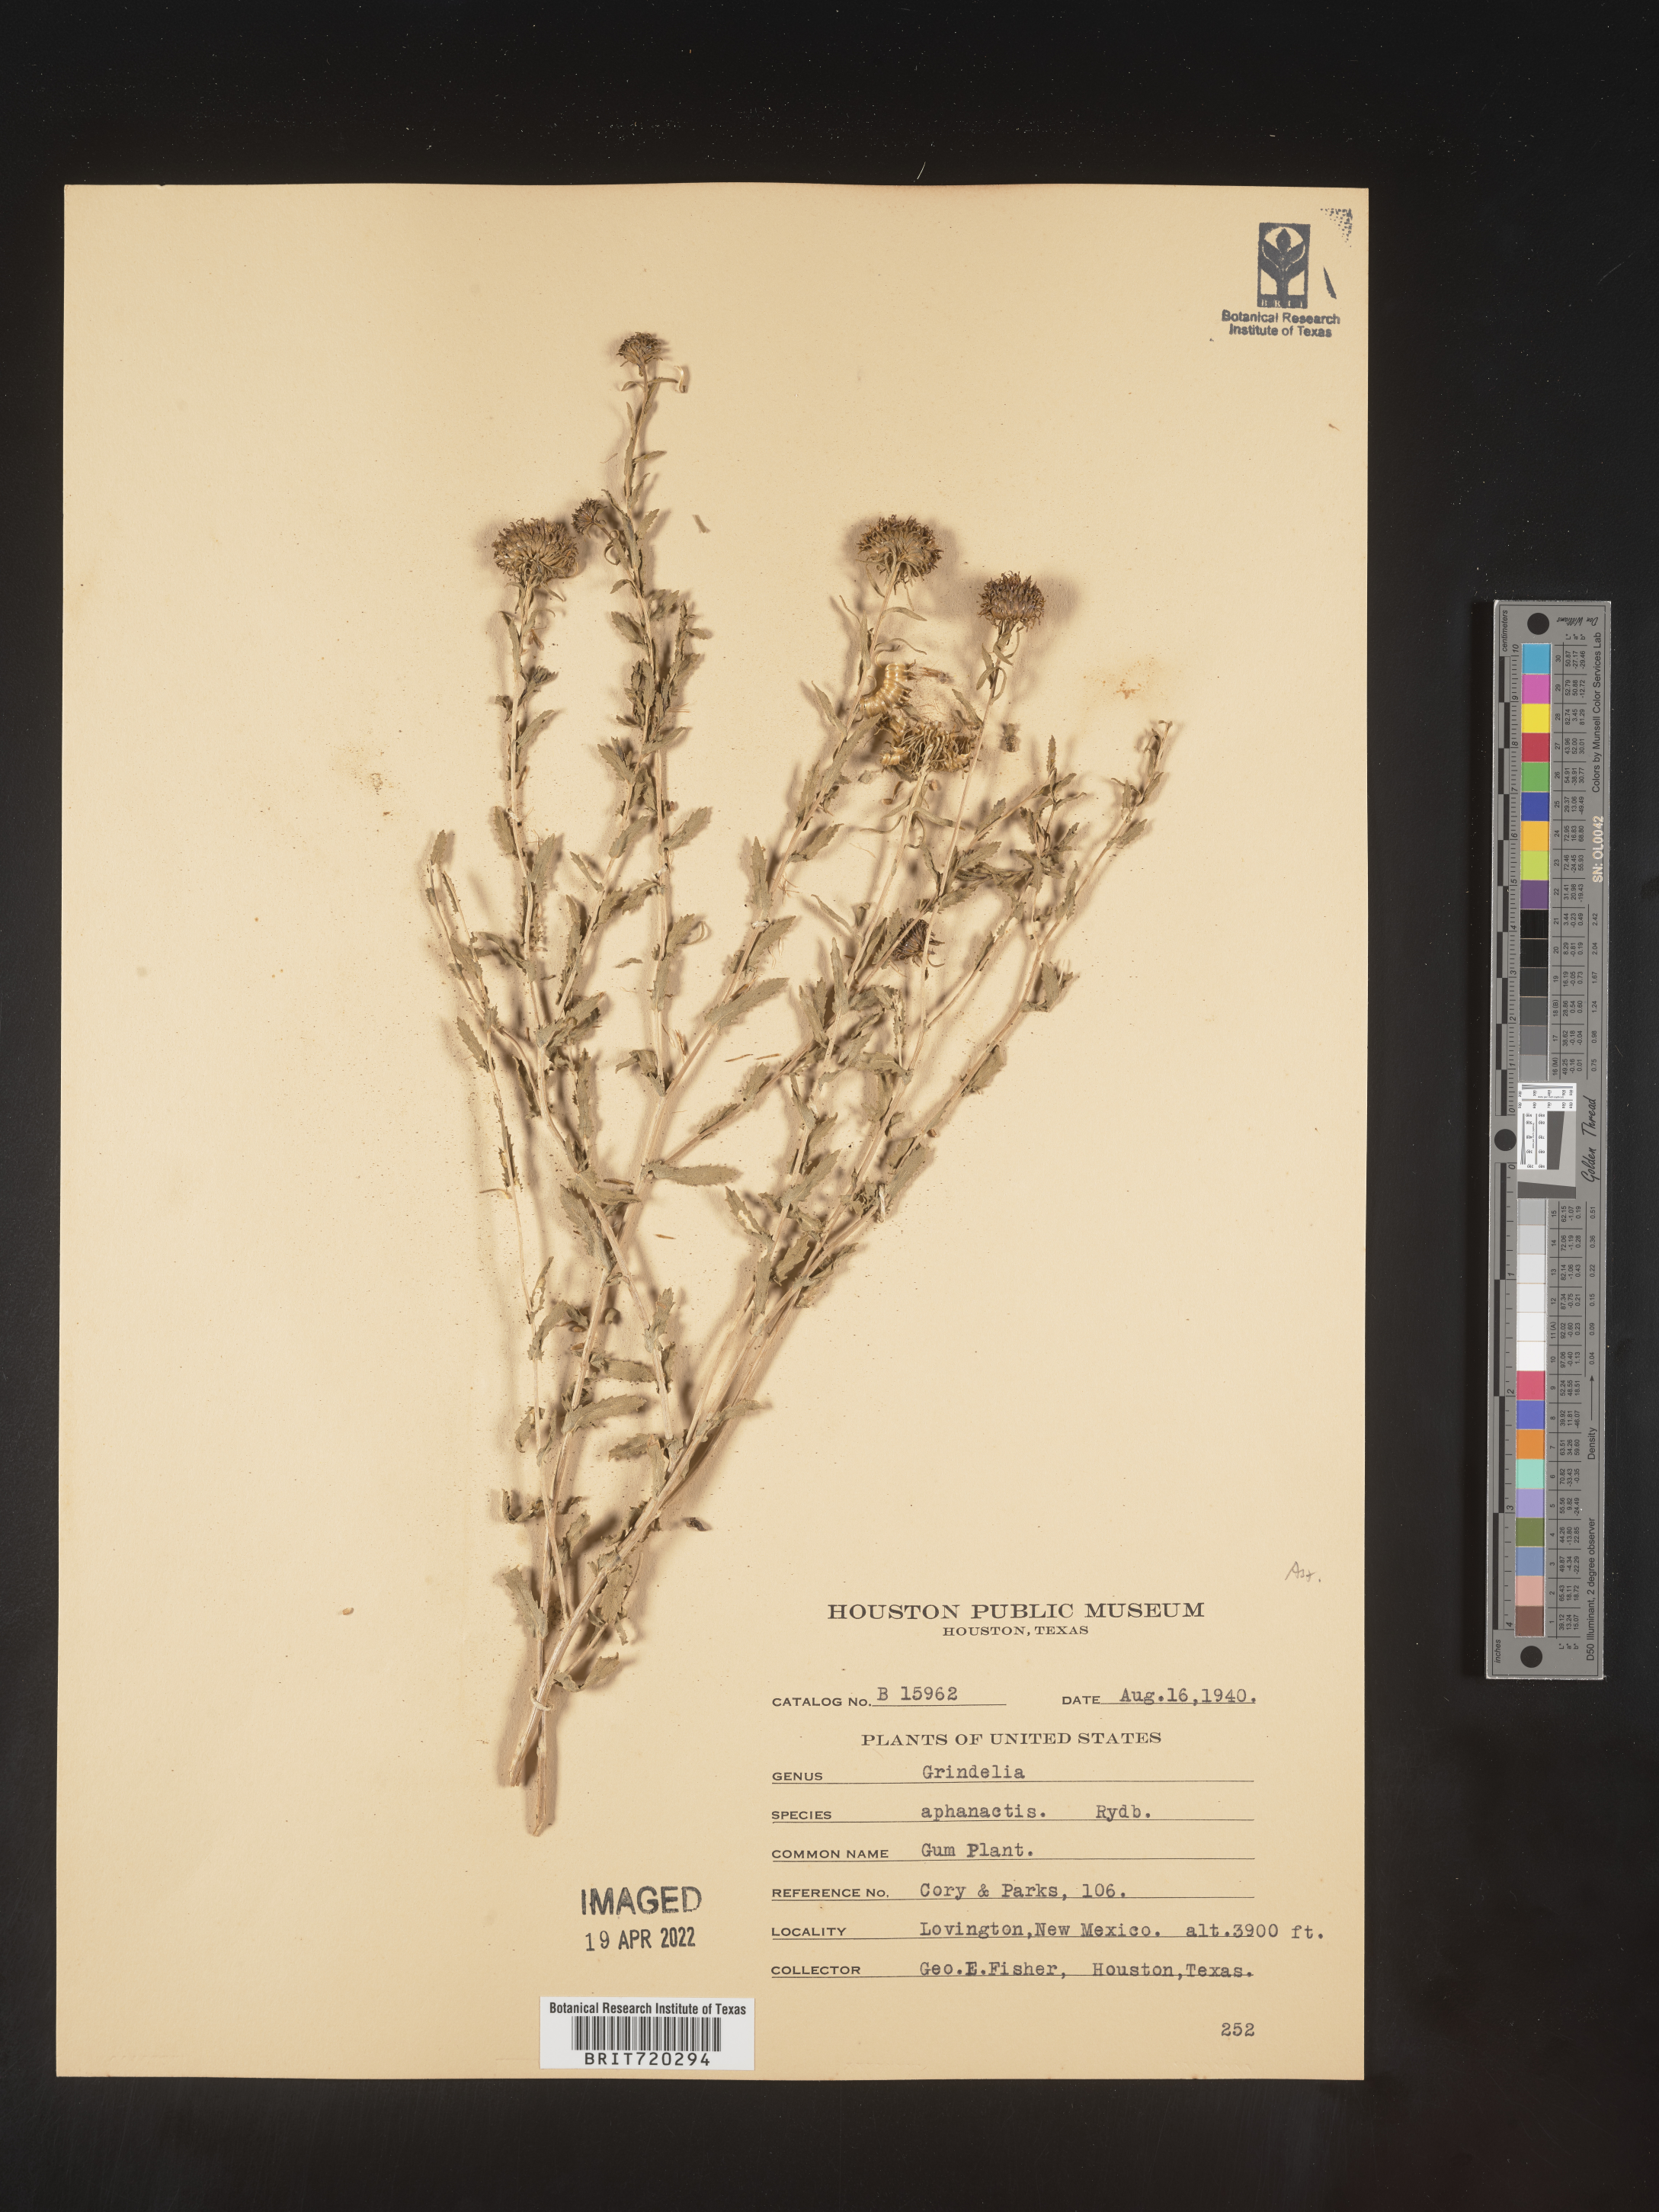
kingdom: Plantae
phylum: Tracheophyta
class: Magnoliopsida
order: Asterales
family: Asteraceae
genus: Grindelia
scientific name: Grindelia nuda
